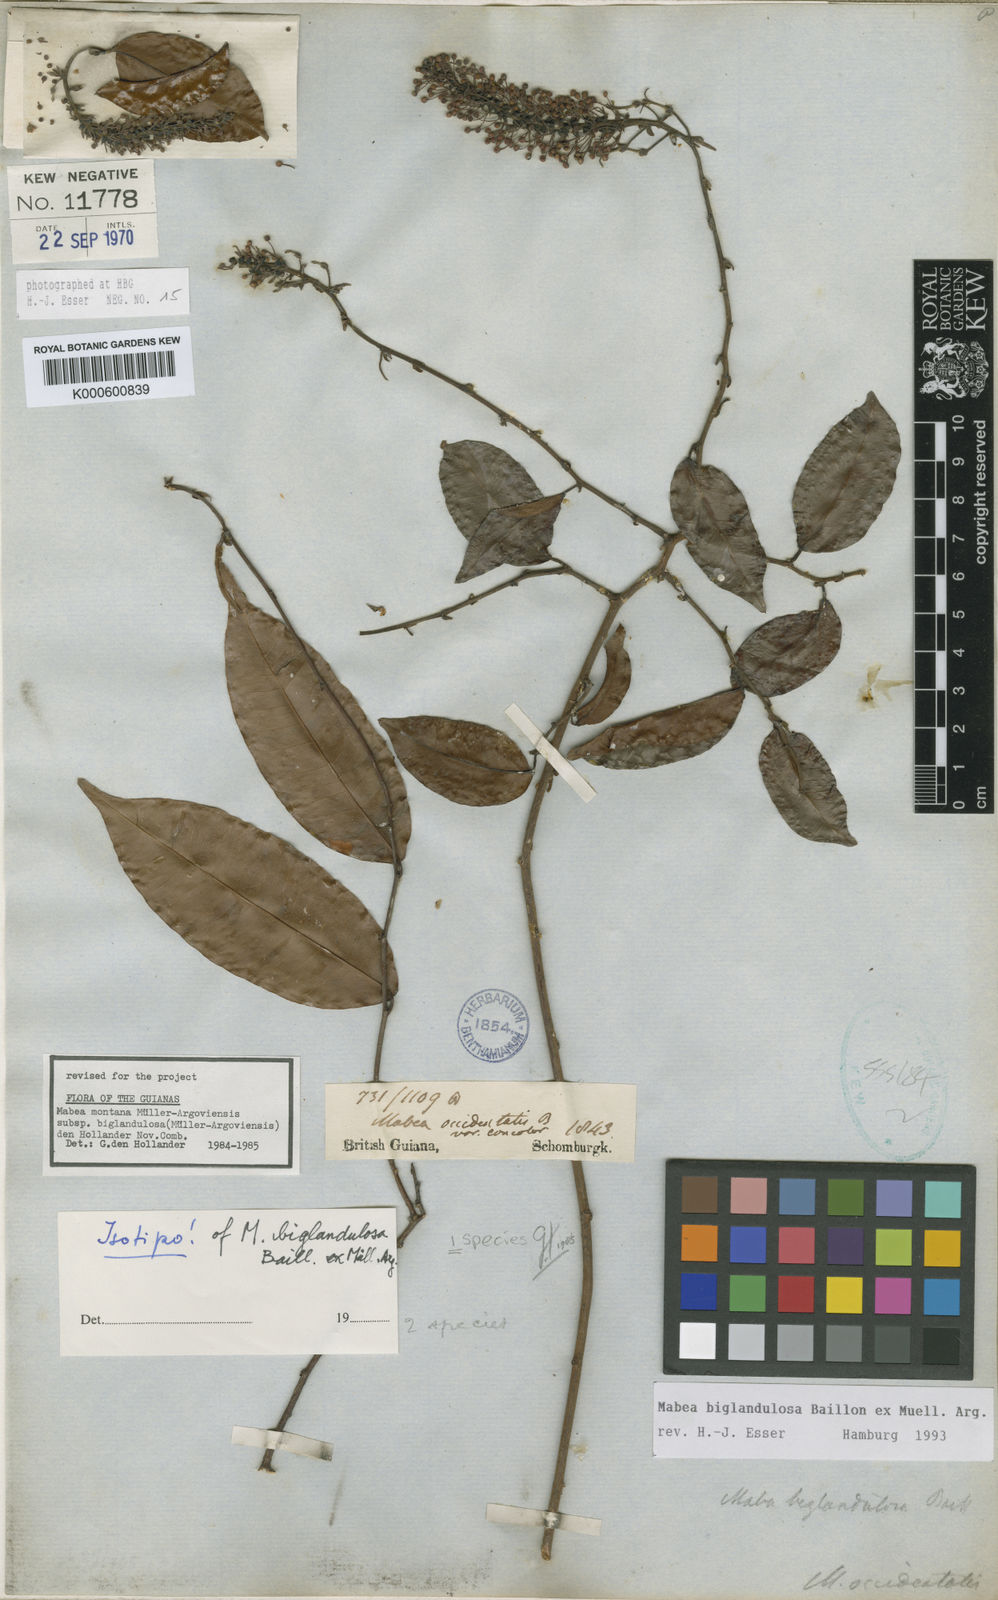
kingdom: Plantae
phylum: Tracheophyta
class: Magnoliopsida
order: Malpighiales
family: Euphorbiaceae
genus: Mabea
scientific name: Mabea
